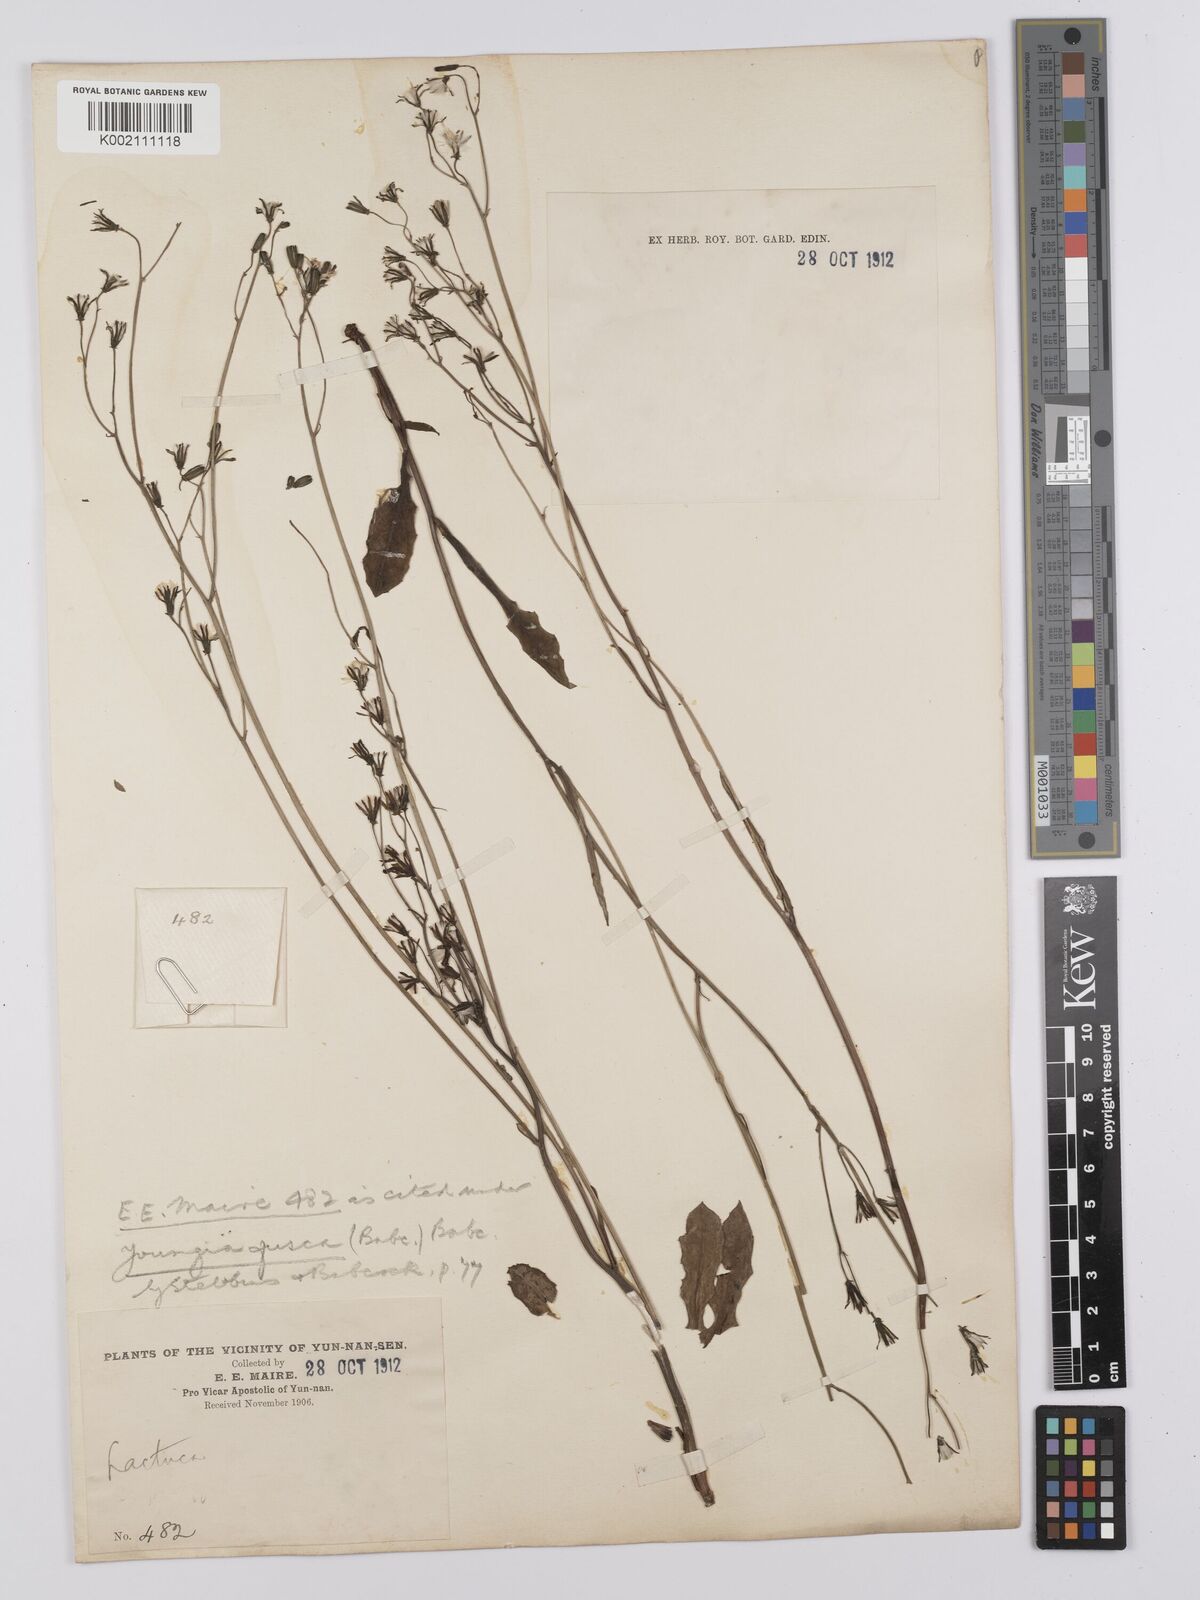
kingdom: Plantae
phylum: Tracheophyta
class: Magnoliopsida
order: Asterales
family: Asteraceae
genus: Youngia
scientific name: Youngia fusca
